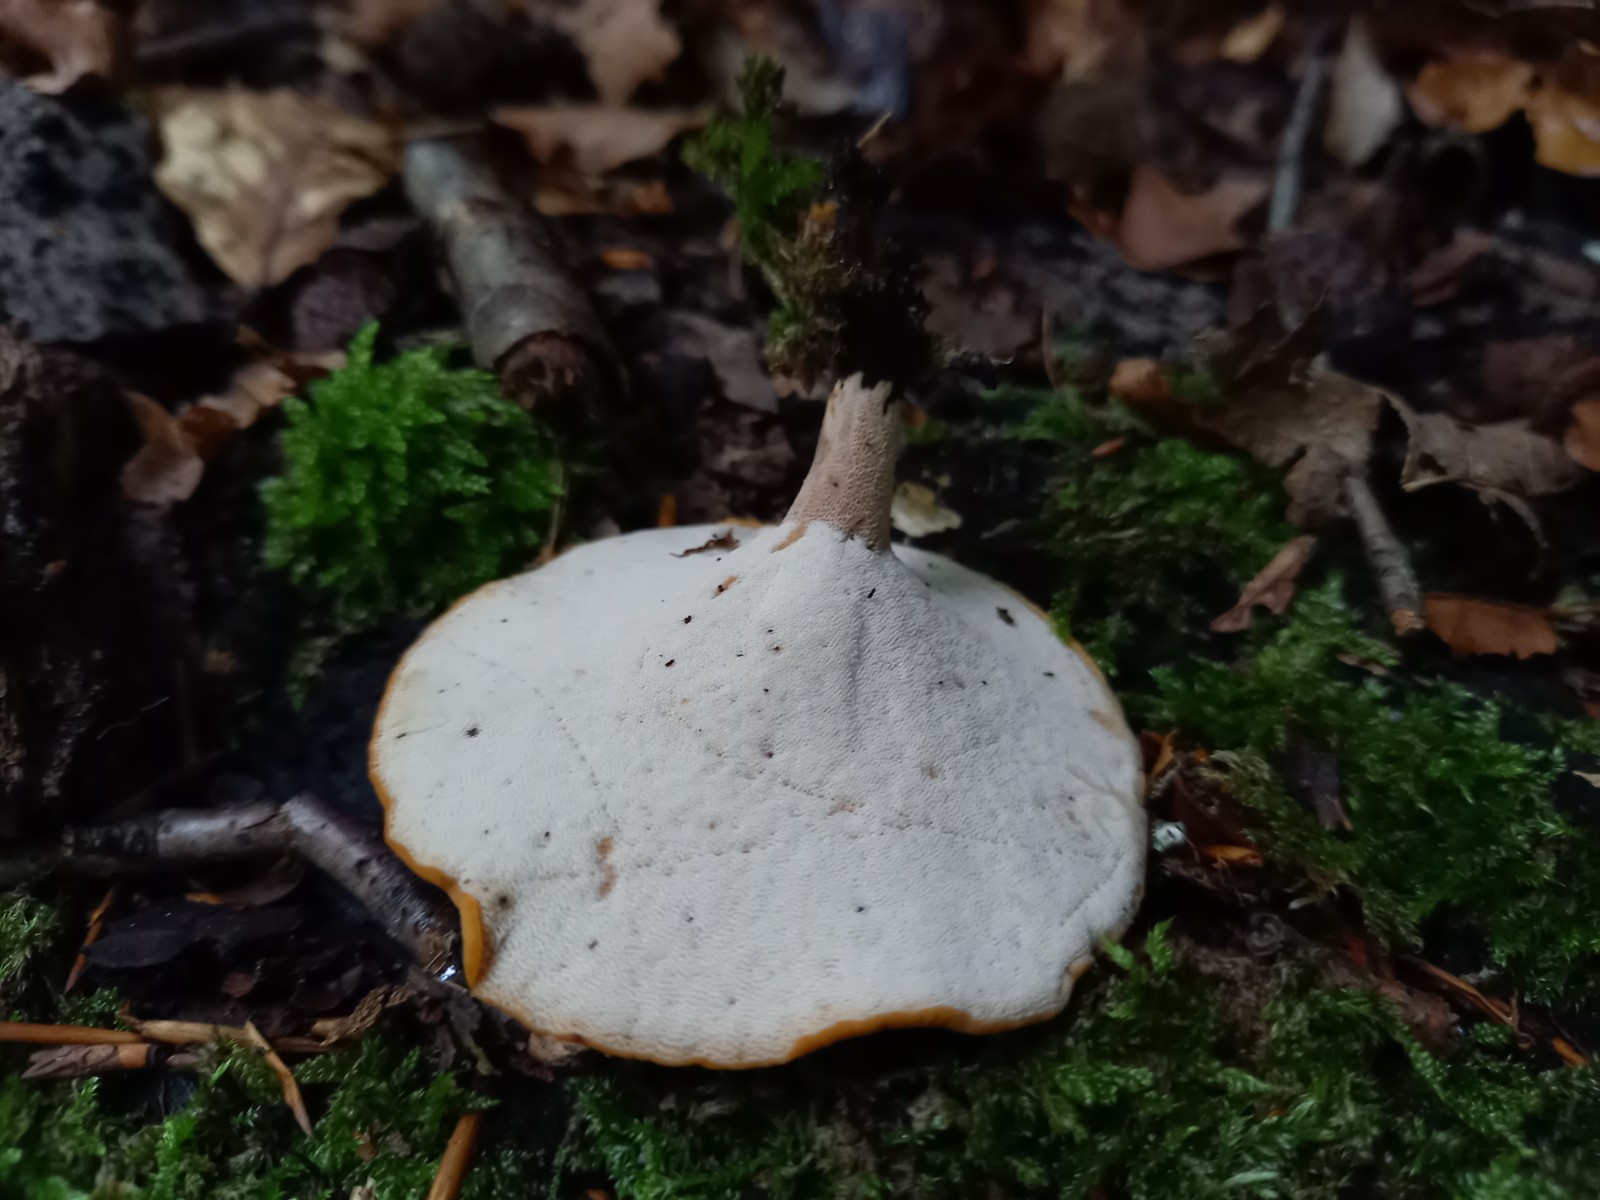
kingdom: Fungi
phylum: Basidiomycota
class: Agaricomycetes
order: Polyporales
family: Polyporaceae
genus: Cerioporus
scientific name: Cerioporus varius
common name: foranderlig stilkporesvamp
